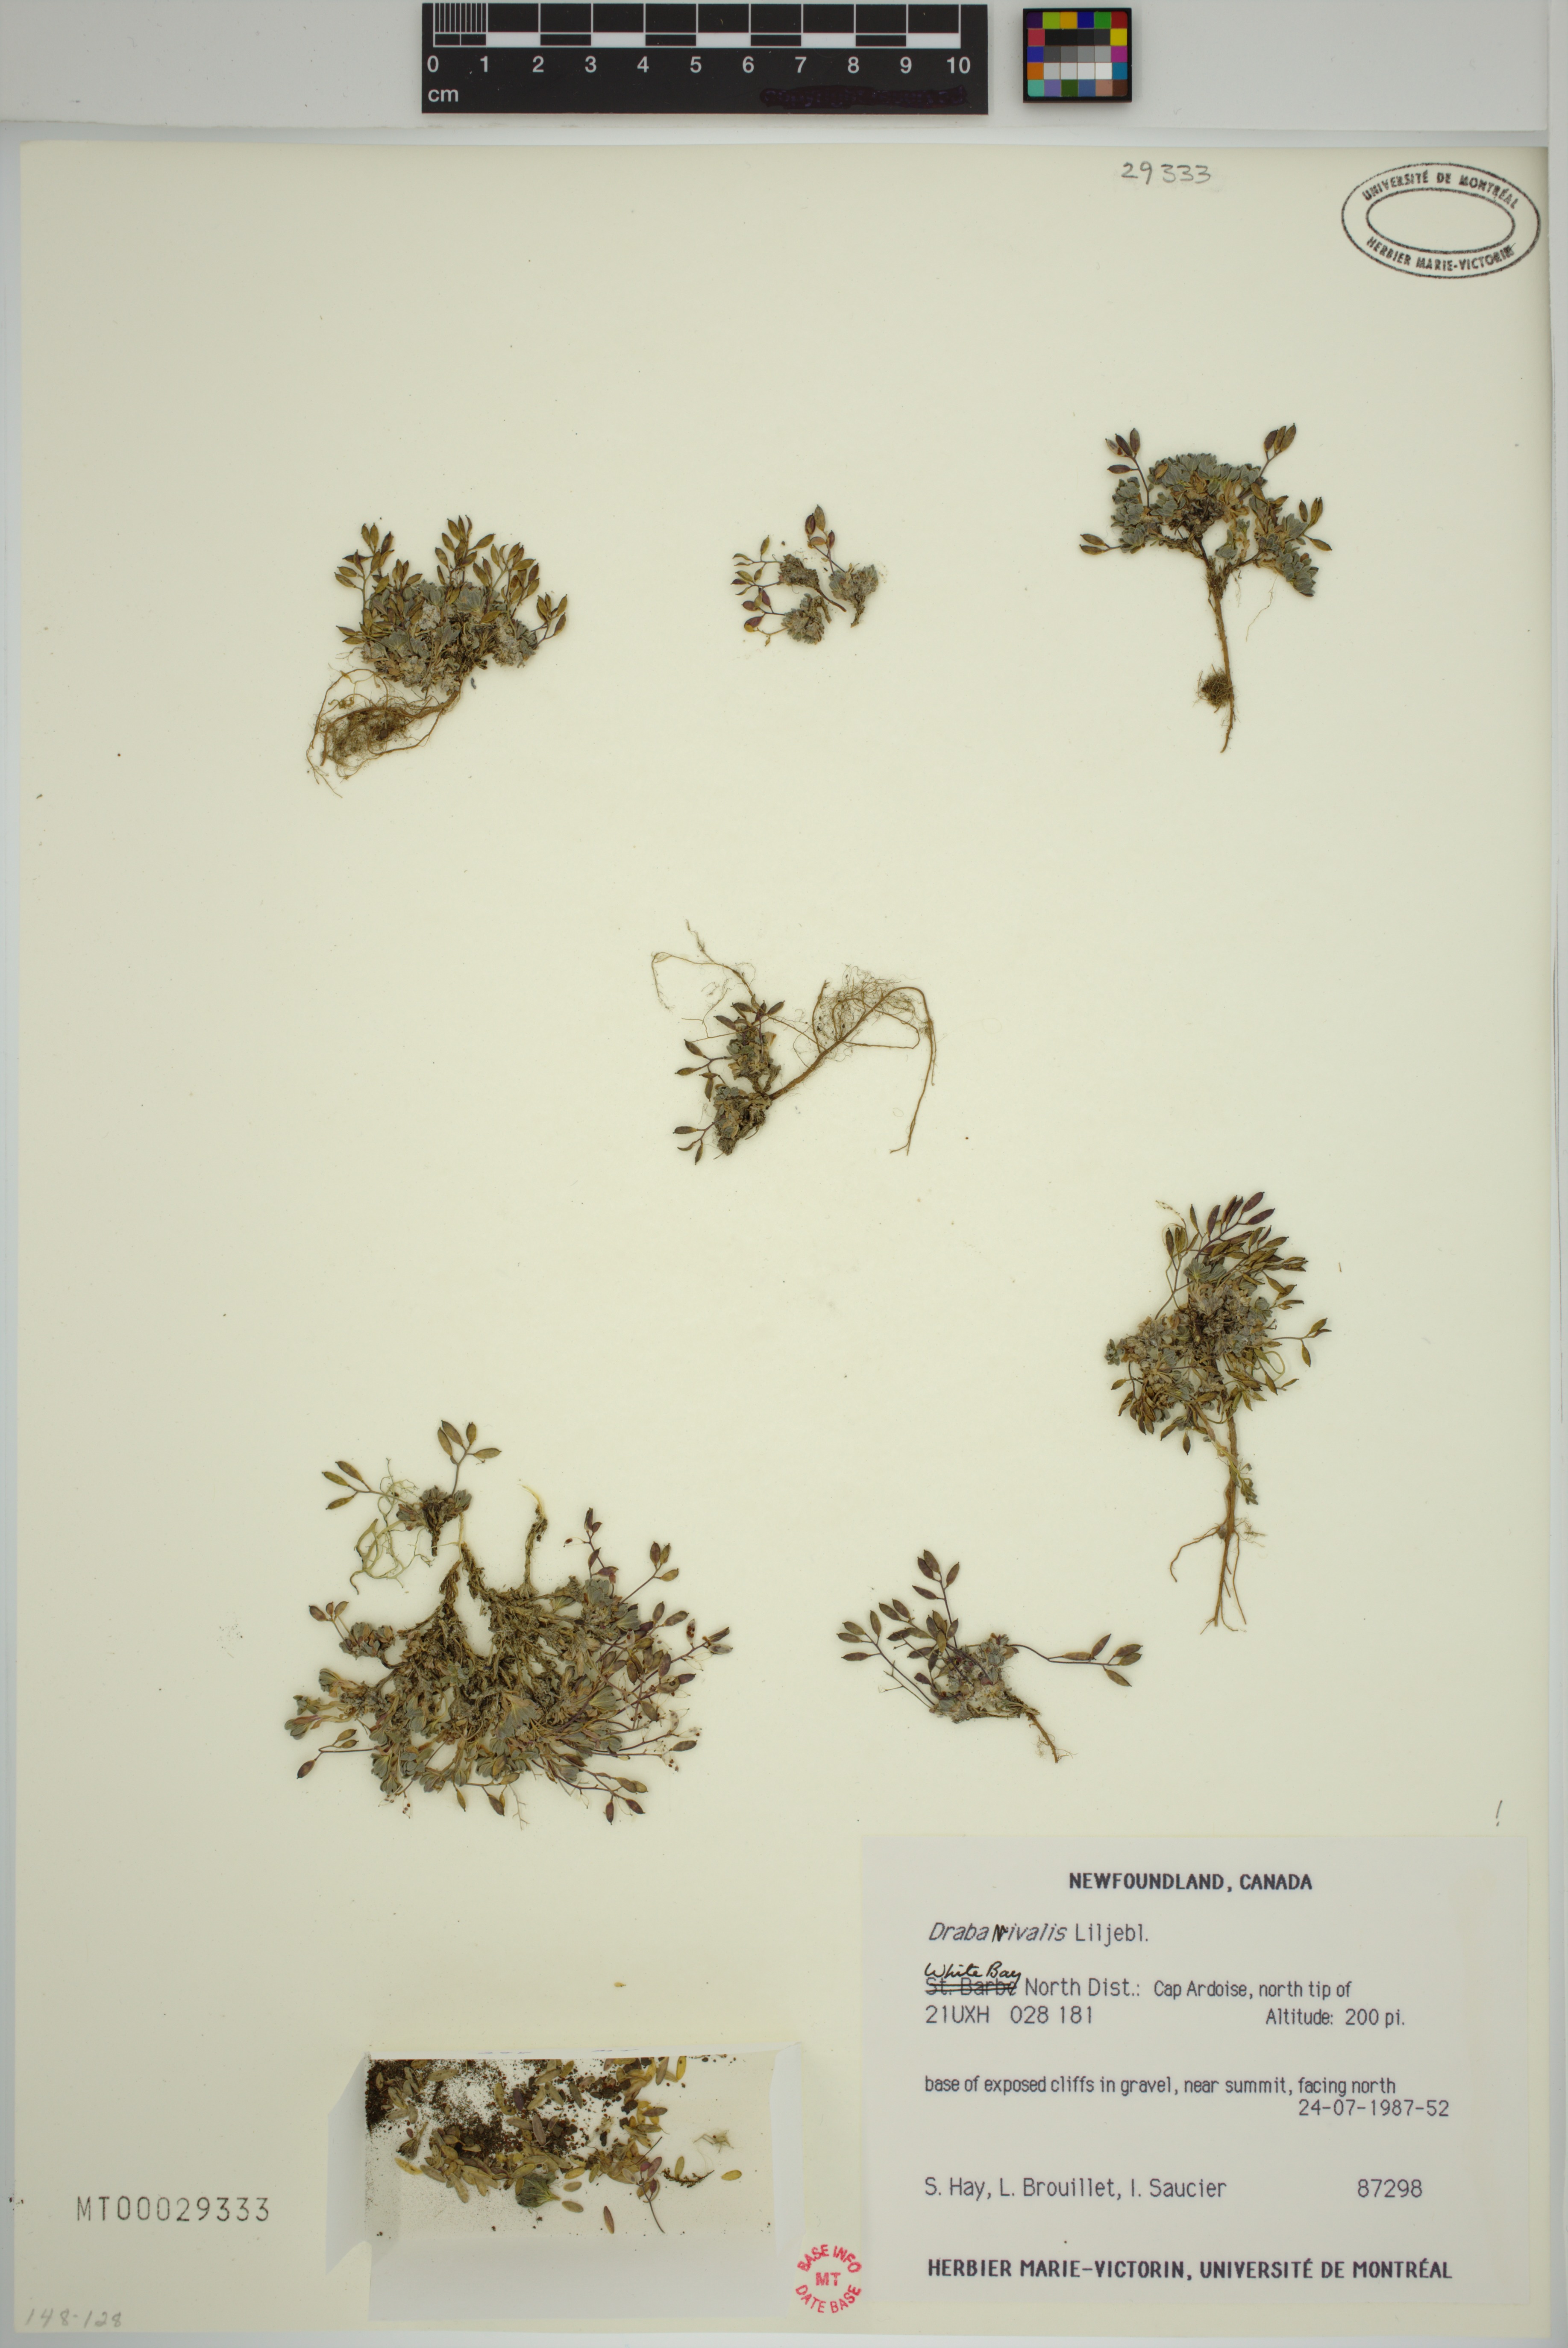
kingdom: Plantae
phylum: Tracheophyta
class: Magnoliopsida
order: Brassicales
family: Brassicaceae
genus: Draba
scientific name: Draba nivalis
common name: Snow draba
